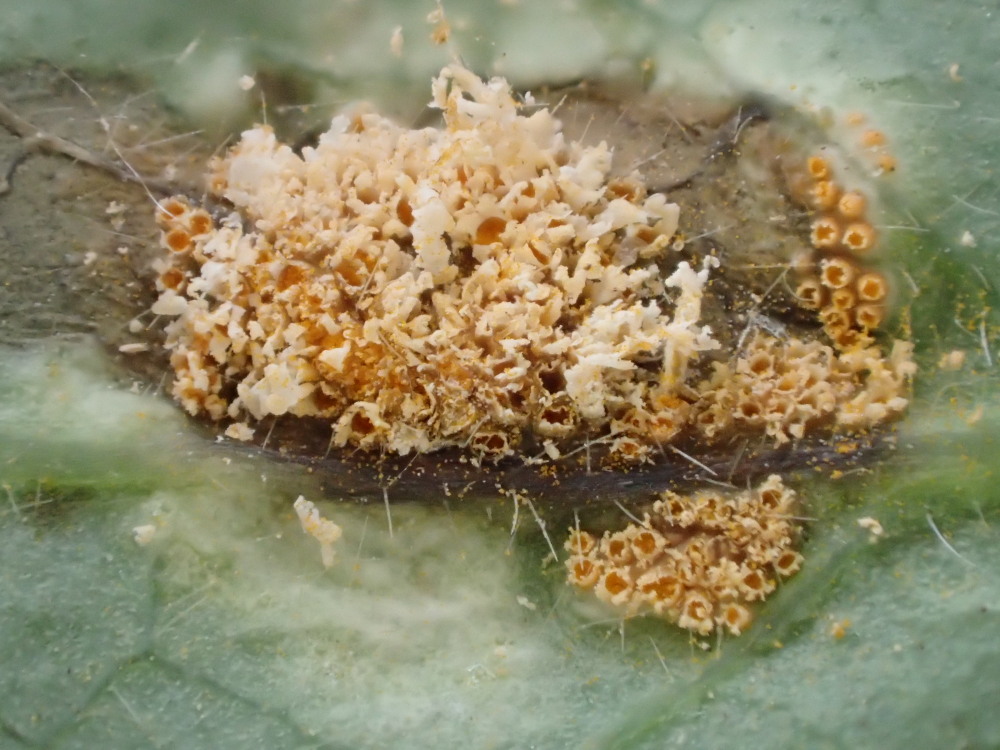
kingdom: Fungi
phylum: Basidiomycota
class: Pucciniomycetes
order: Pucciniales
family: Pucciniaceae
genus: Puccinia
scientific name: Puccinia festucae
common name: gedeblad-tvecellerust
